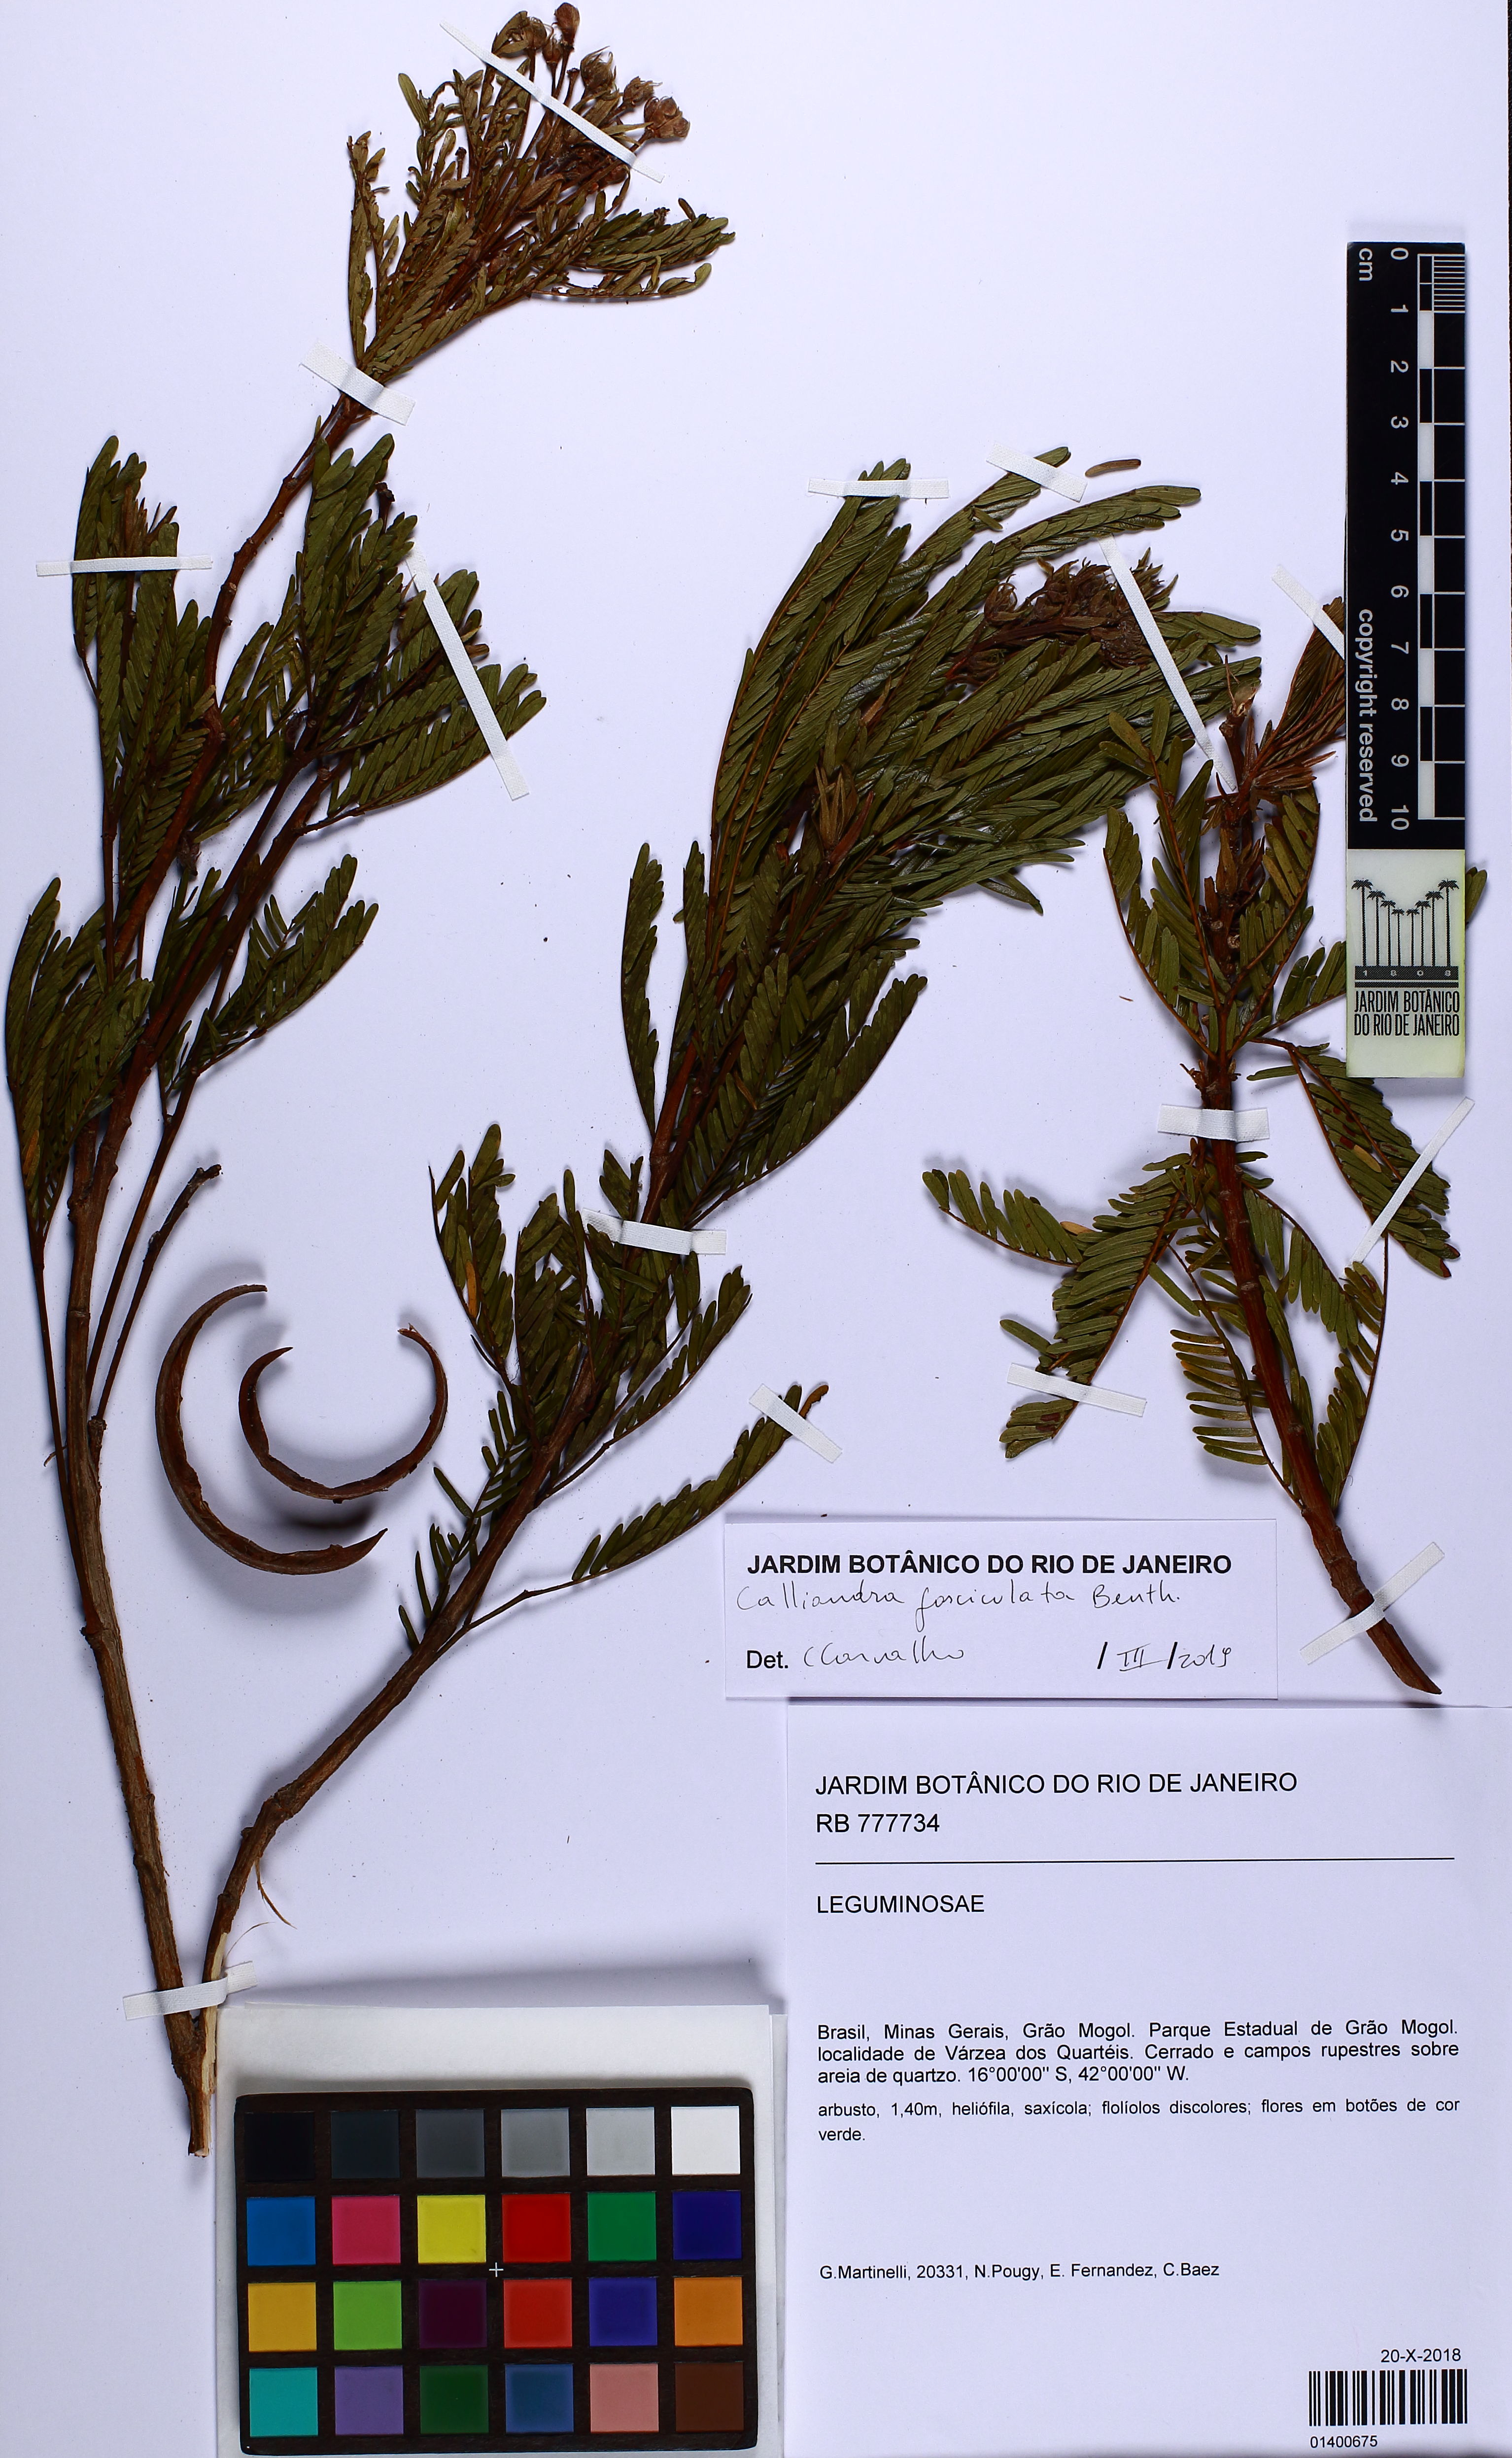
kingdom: Plantae
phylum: Tracheophyta
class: Magnoliopsida
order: Fabales
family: Fabaceae
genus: Calliandra
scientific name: Calliandra fasciculata
